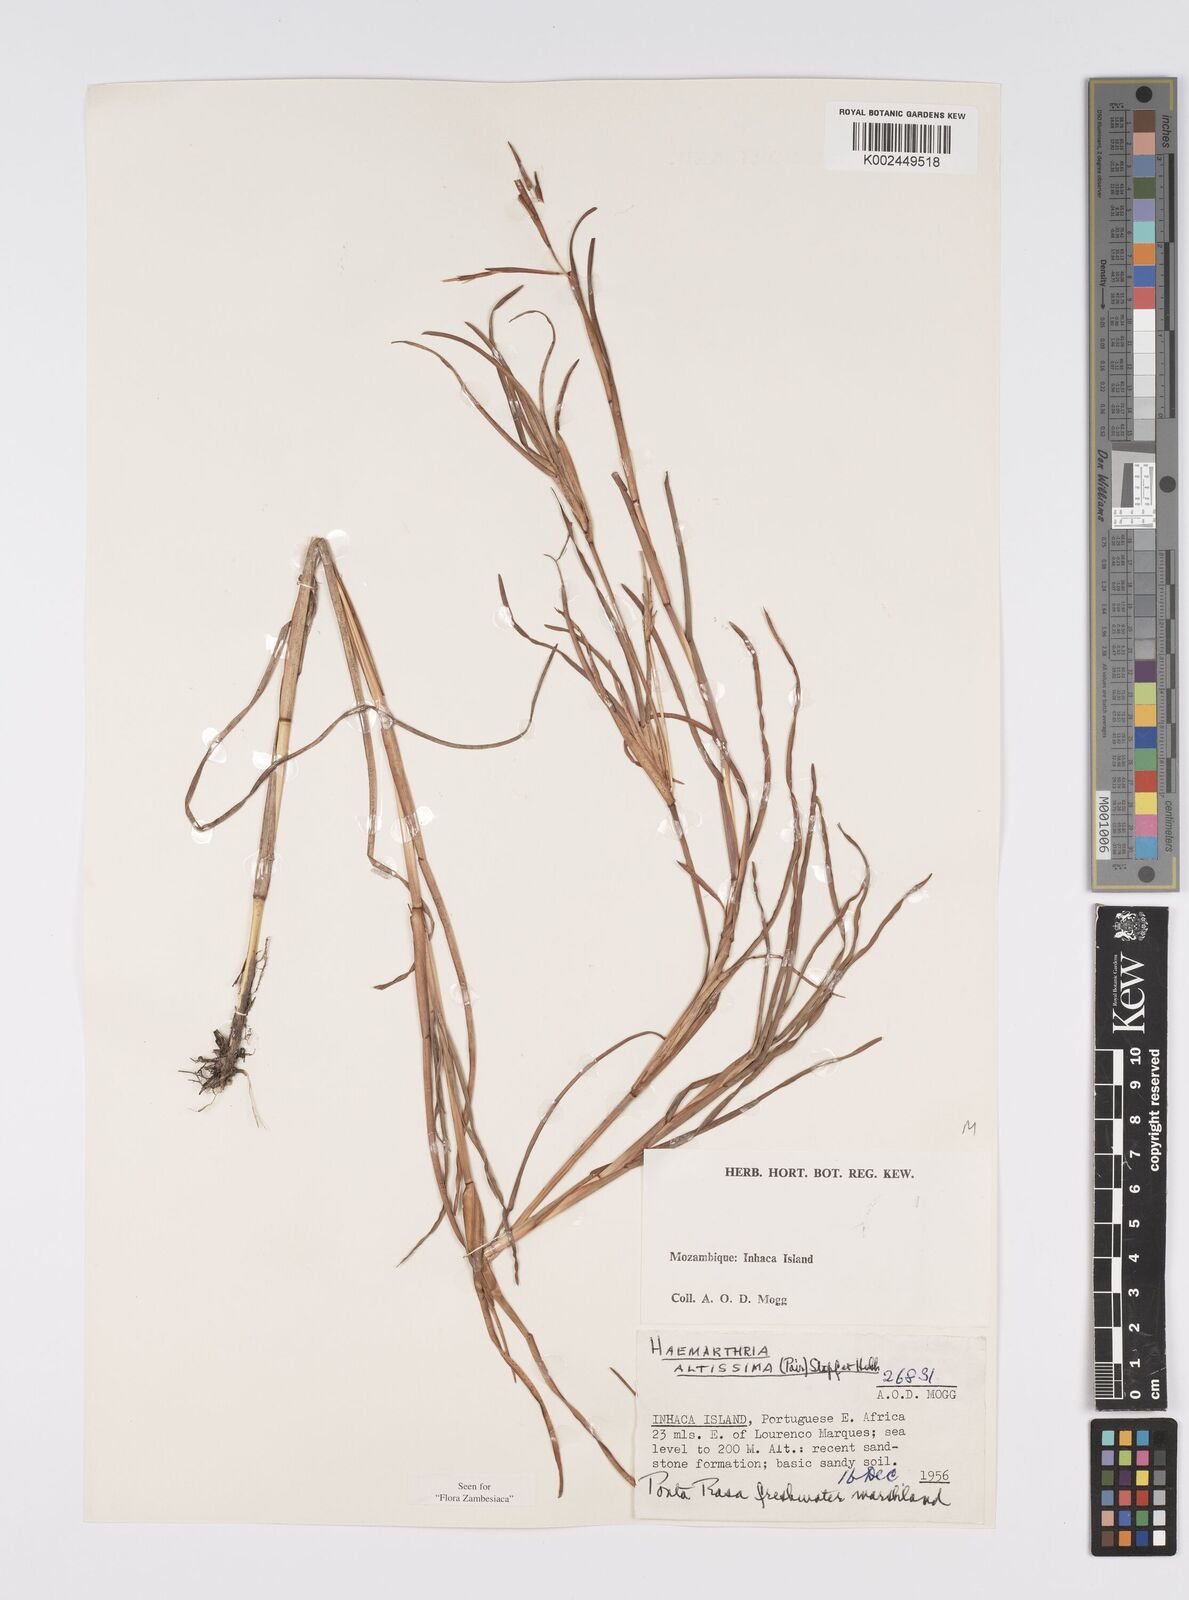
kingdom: Plantae
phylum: Tracheophyta
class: Liliopsida
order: Poales
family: Poaceae
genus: Hemarthria
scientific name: Hemarthria altissima
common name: African jointgrass
